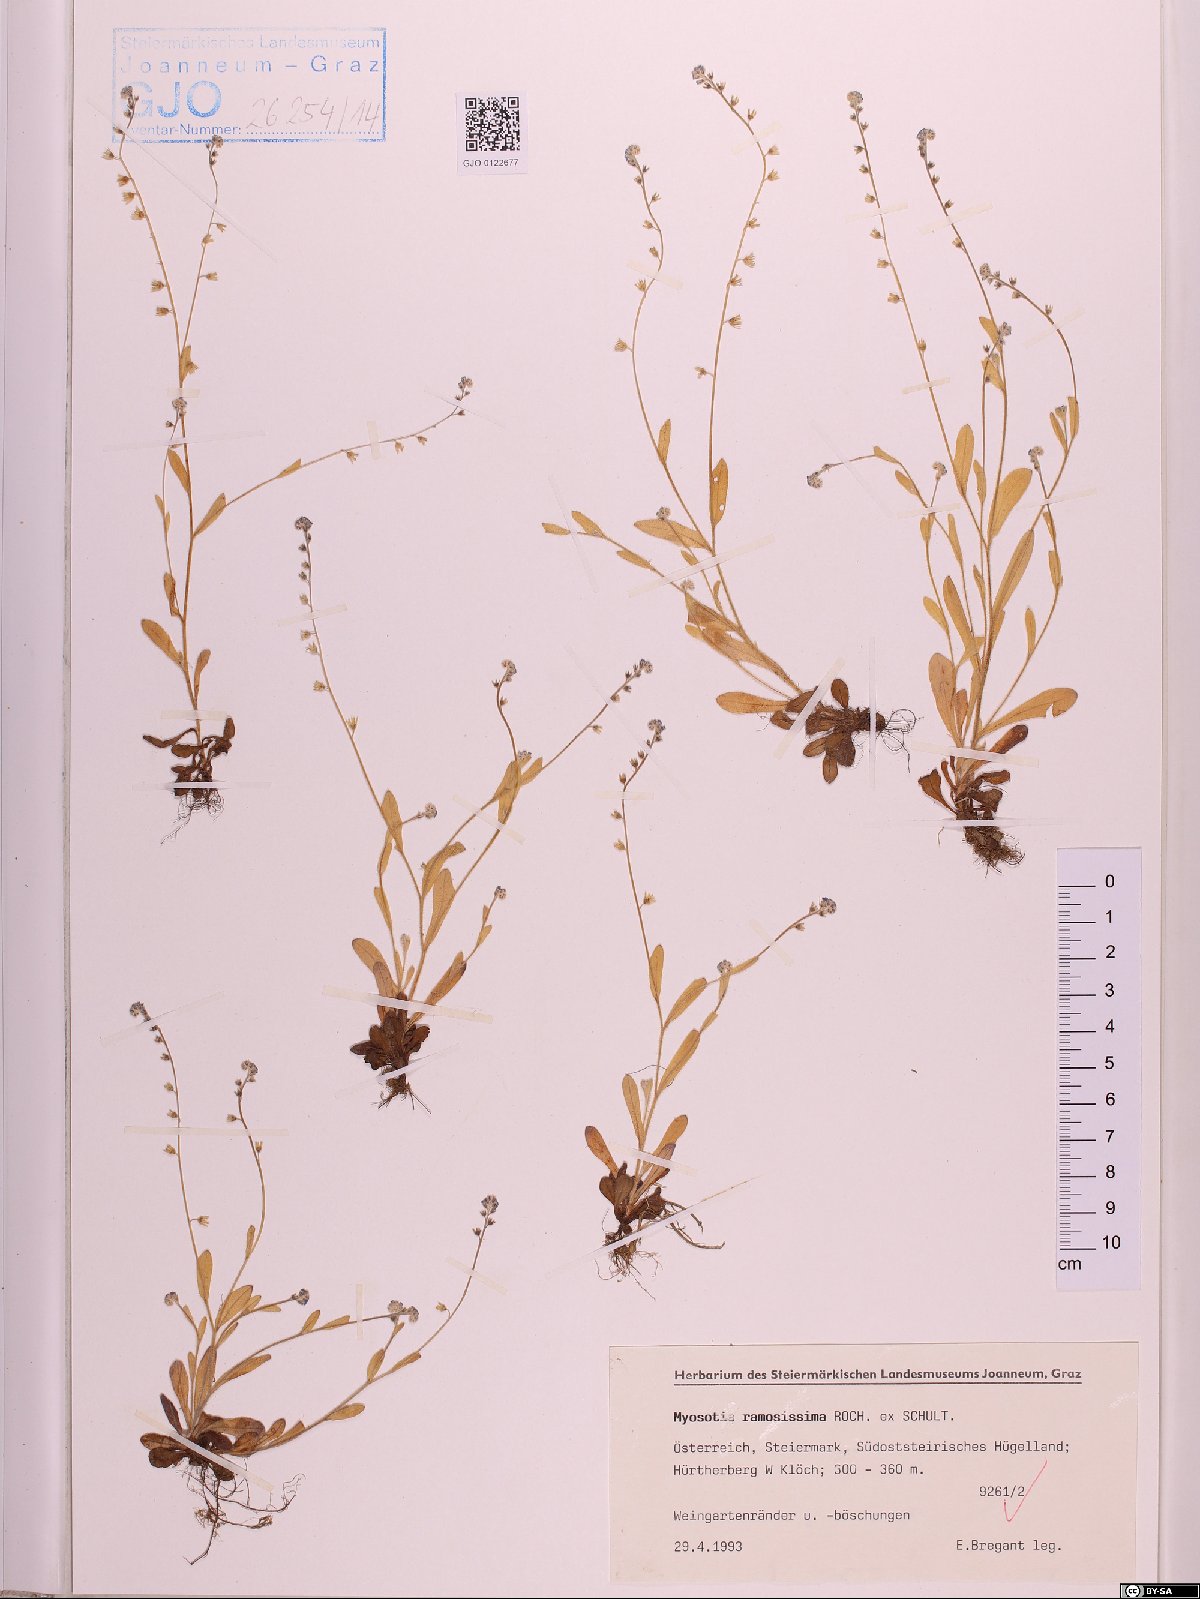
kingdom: Plantae
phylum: Tracheophyta
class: Magnoliopsida
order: Boraginales
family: Boraginaceae
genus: Myosotis
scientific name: Myosotis ramosissima
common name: Early forget-me-not
